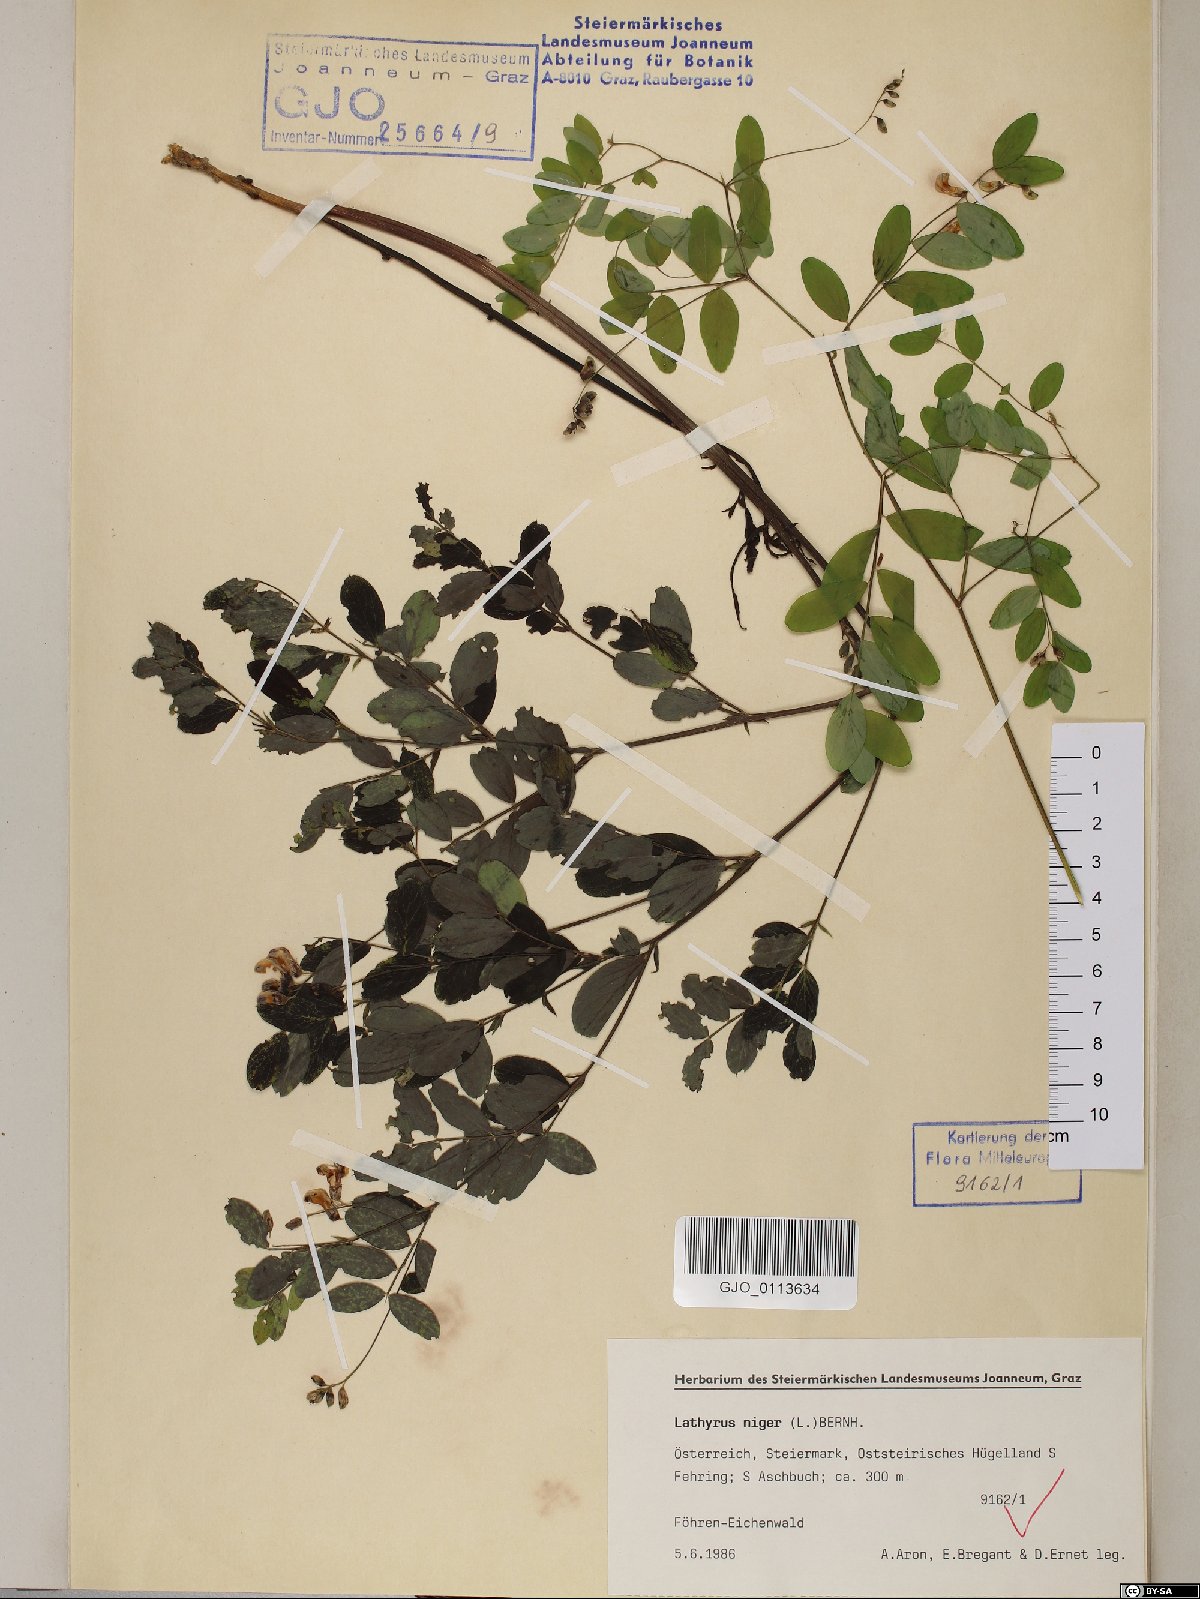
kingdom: Plantae
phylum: Tracheophyta
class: Magnoliopsida
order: Fabales
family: Fabaceae
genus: Lathyrus
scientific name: Lathyrus niger
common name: Black pea
